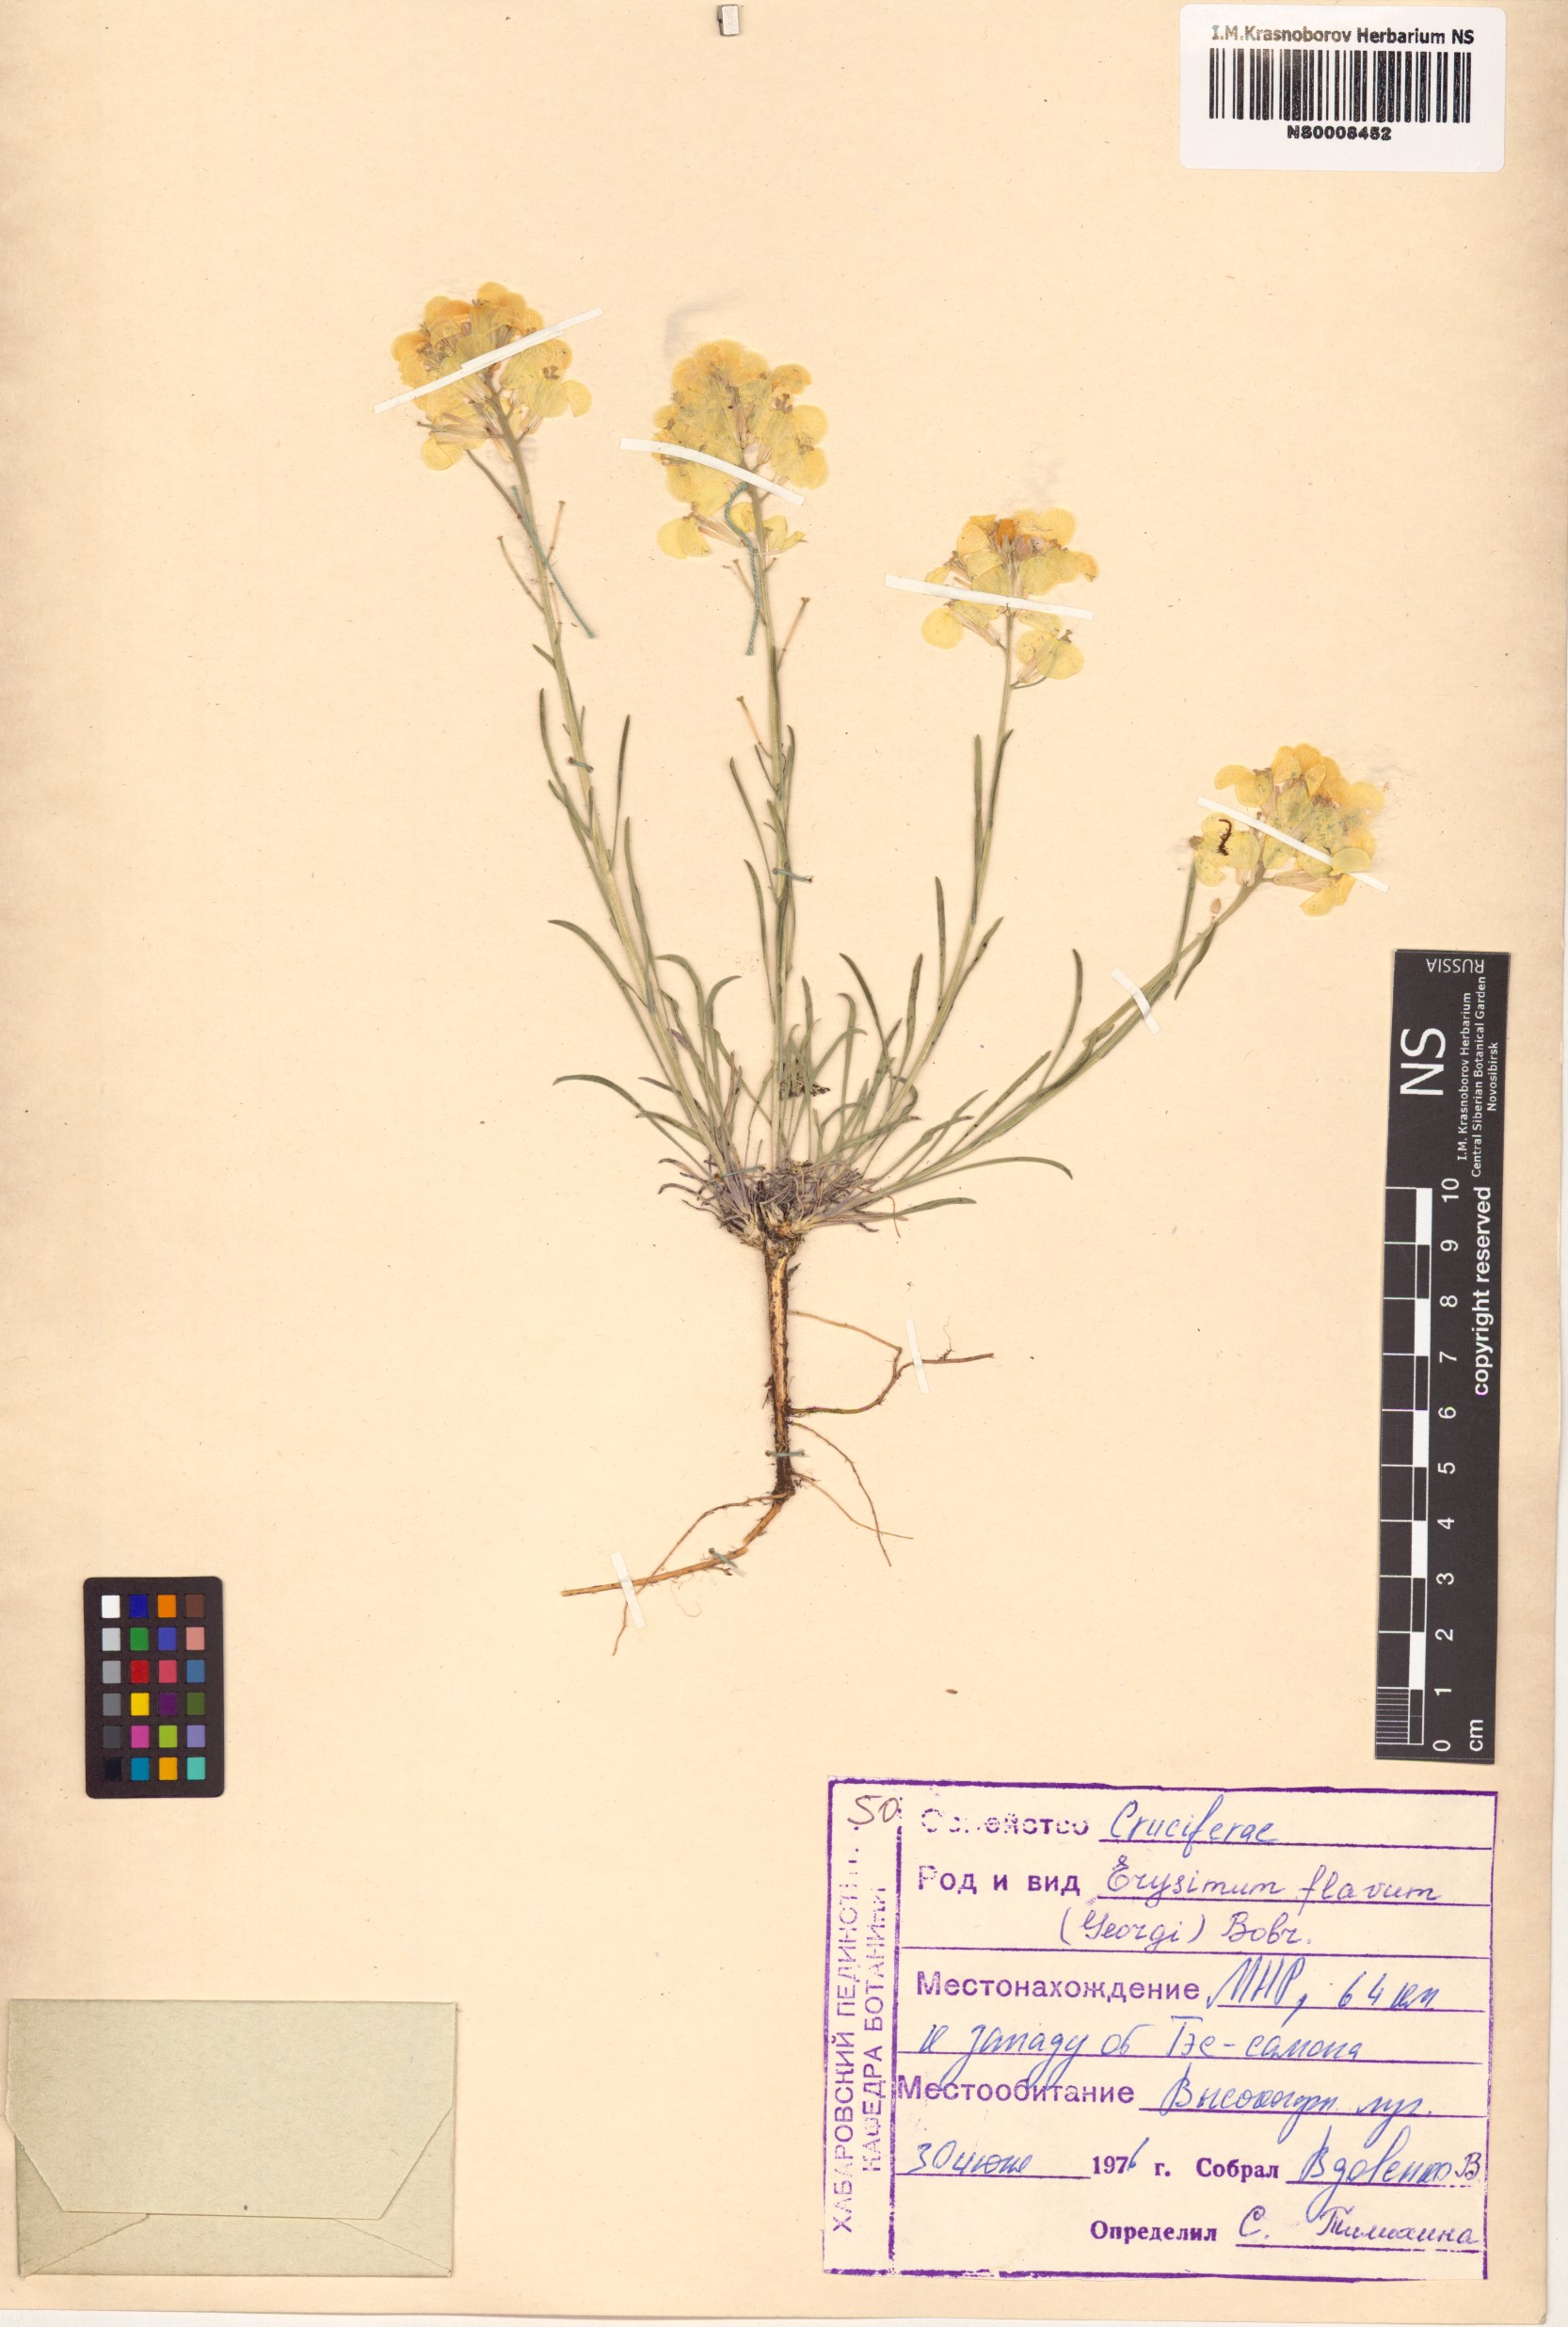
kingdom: Plantae
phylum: Tracheophyta
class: Magnoliopsida
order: Brassicales
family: Brassicaceae
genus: Erysimum
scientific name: Erysimum flavum
